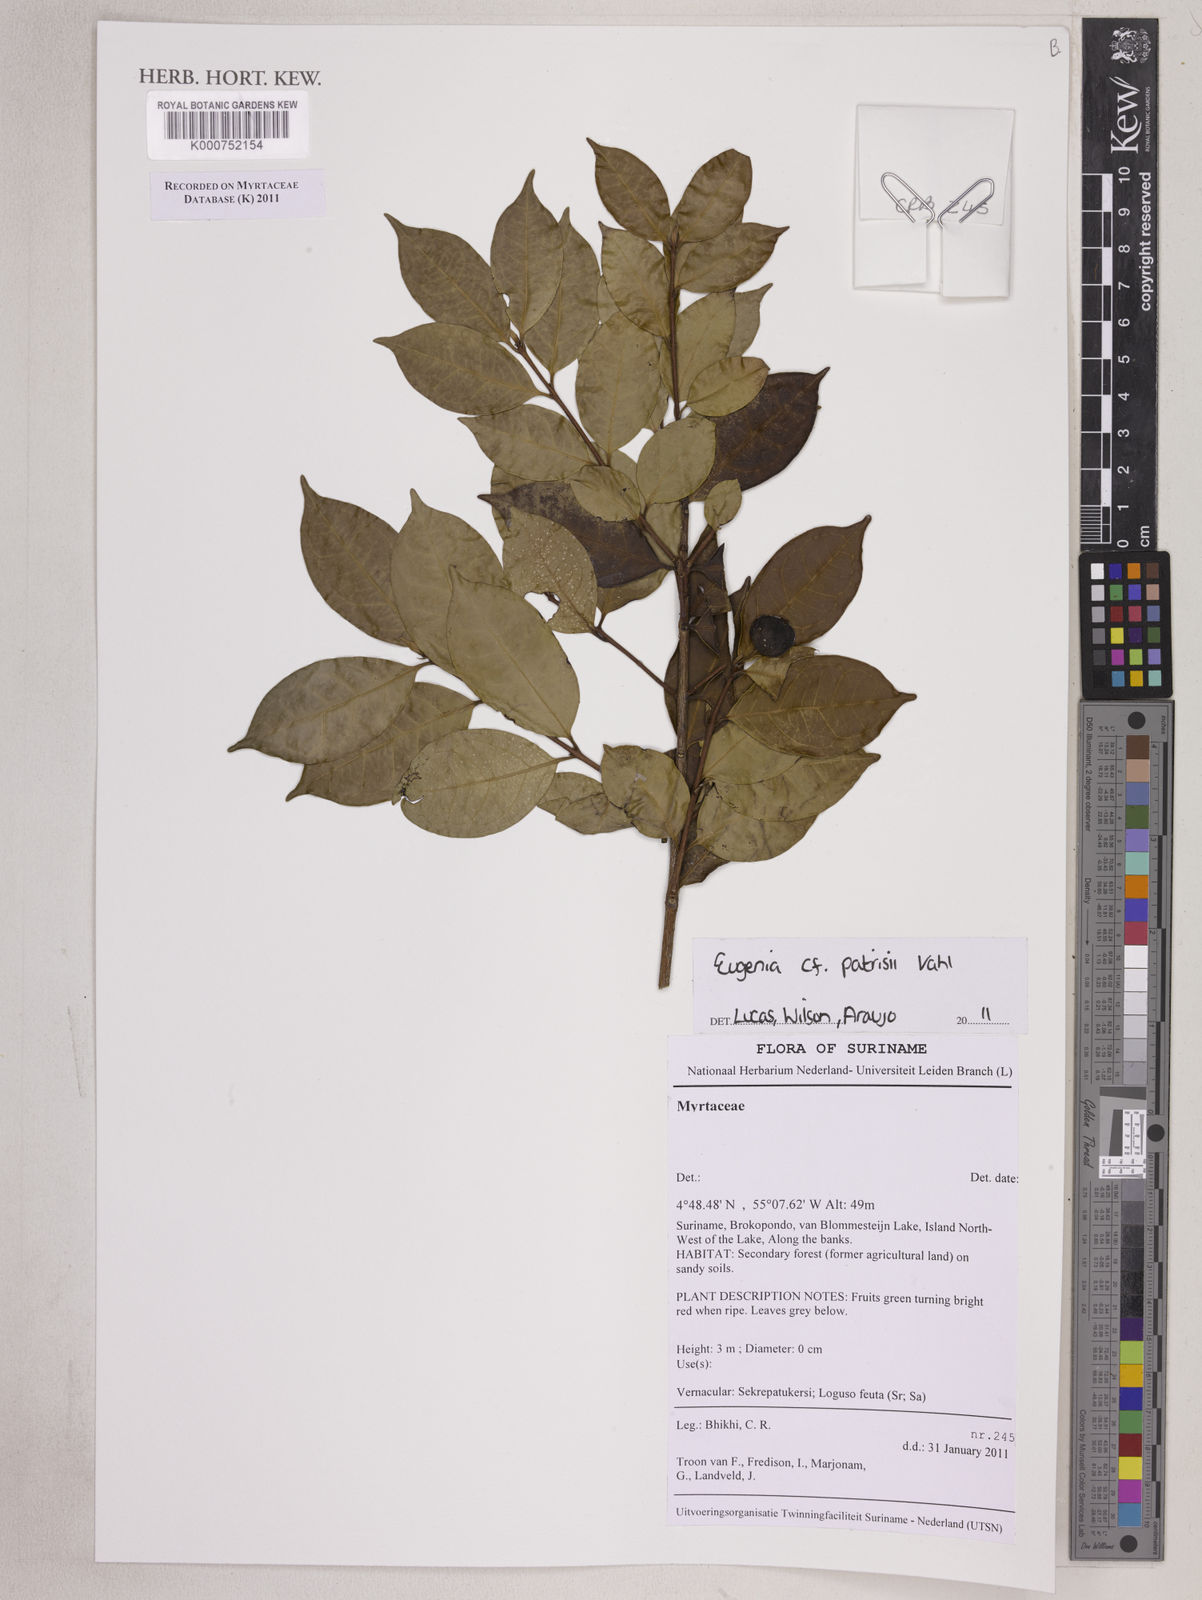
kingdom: Plantae
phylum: Tracheophyta
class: Magnoliopsida
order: Myrtales
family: Myrtaceae
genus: Eugenia
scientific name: Eugenia patrisii
